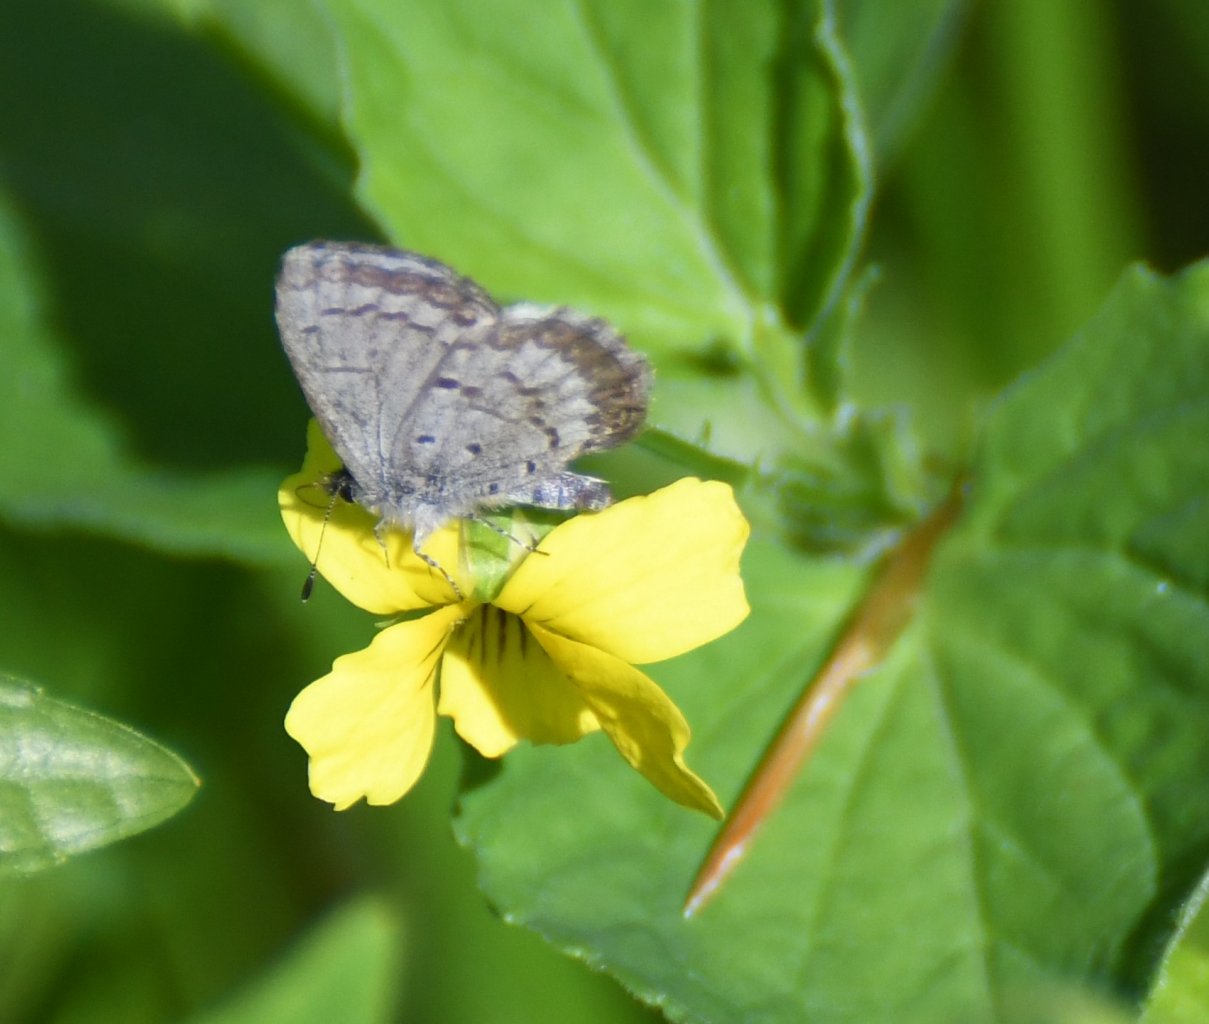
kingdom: Animalia
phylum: Arthropoda
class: Insecta
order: Lepidoptera
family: Lycaenidae
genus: Celastrina
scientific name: Celastrina lucia
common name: Northern Spring Azure
